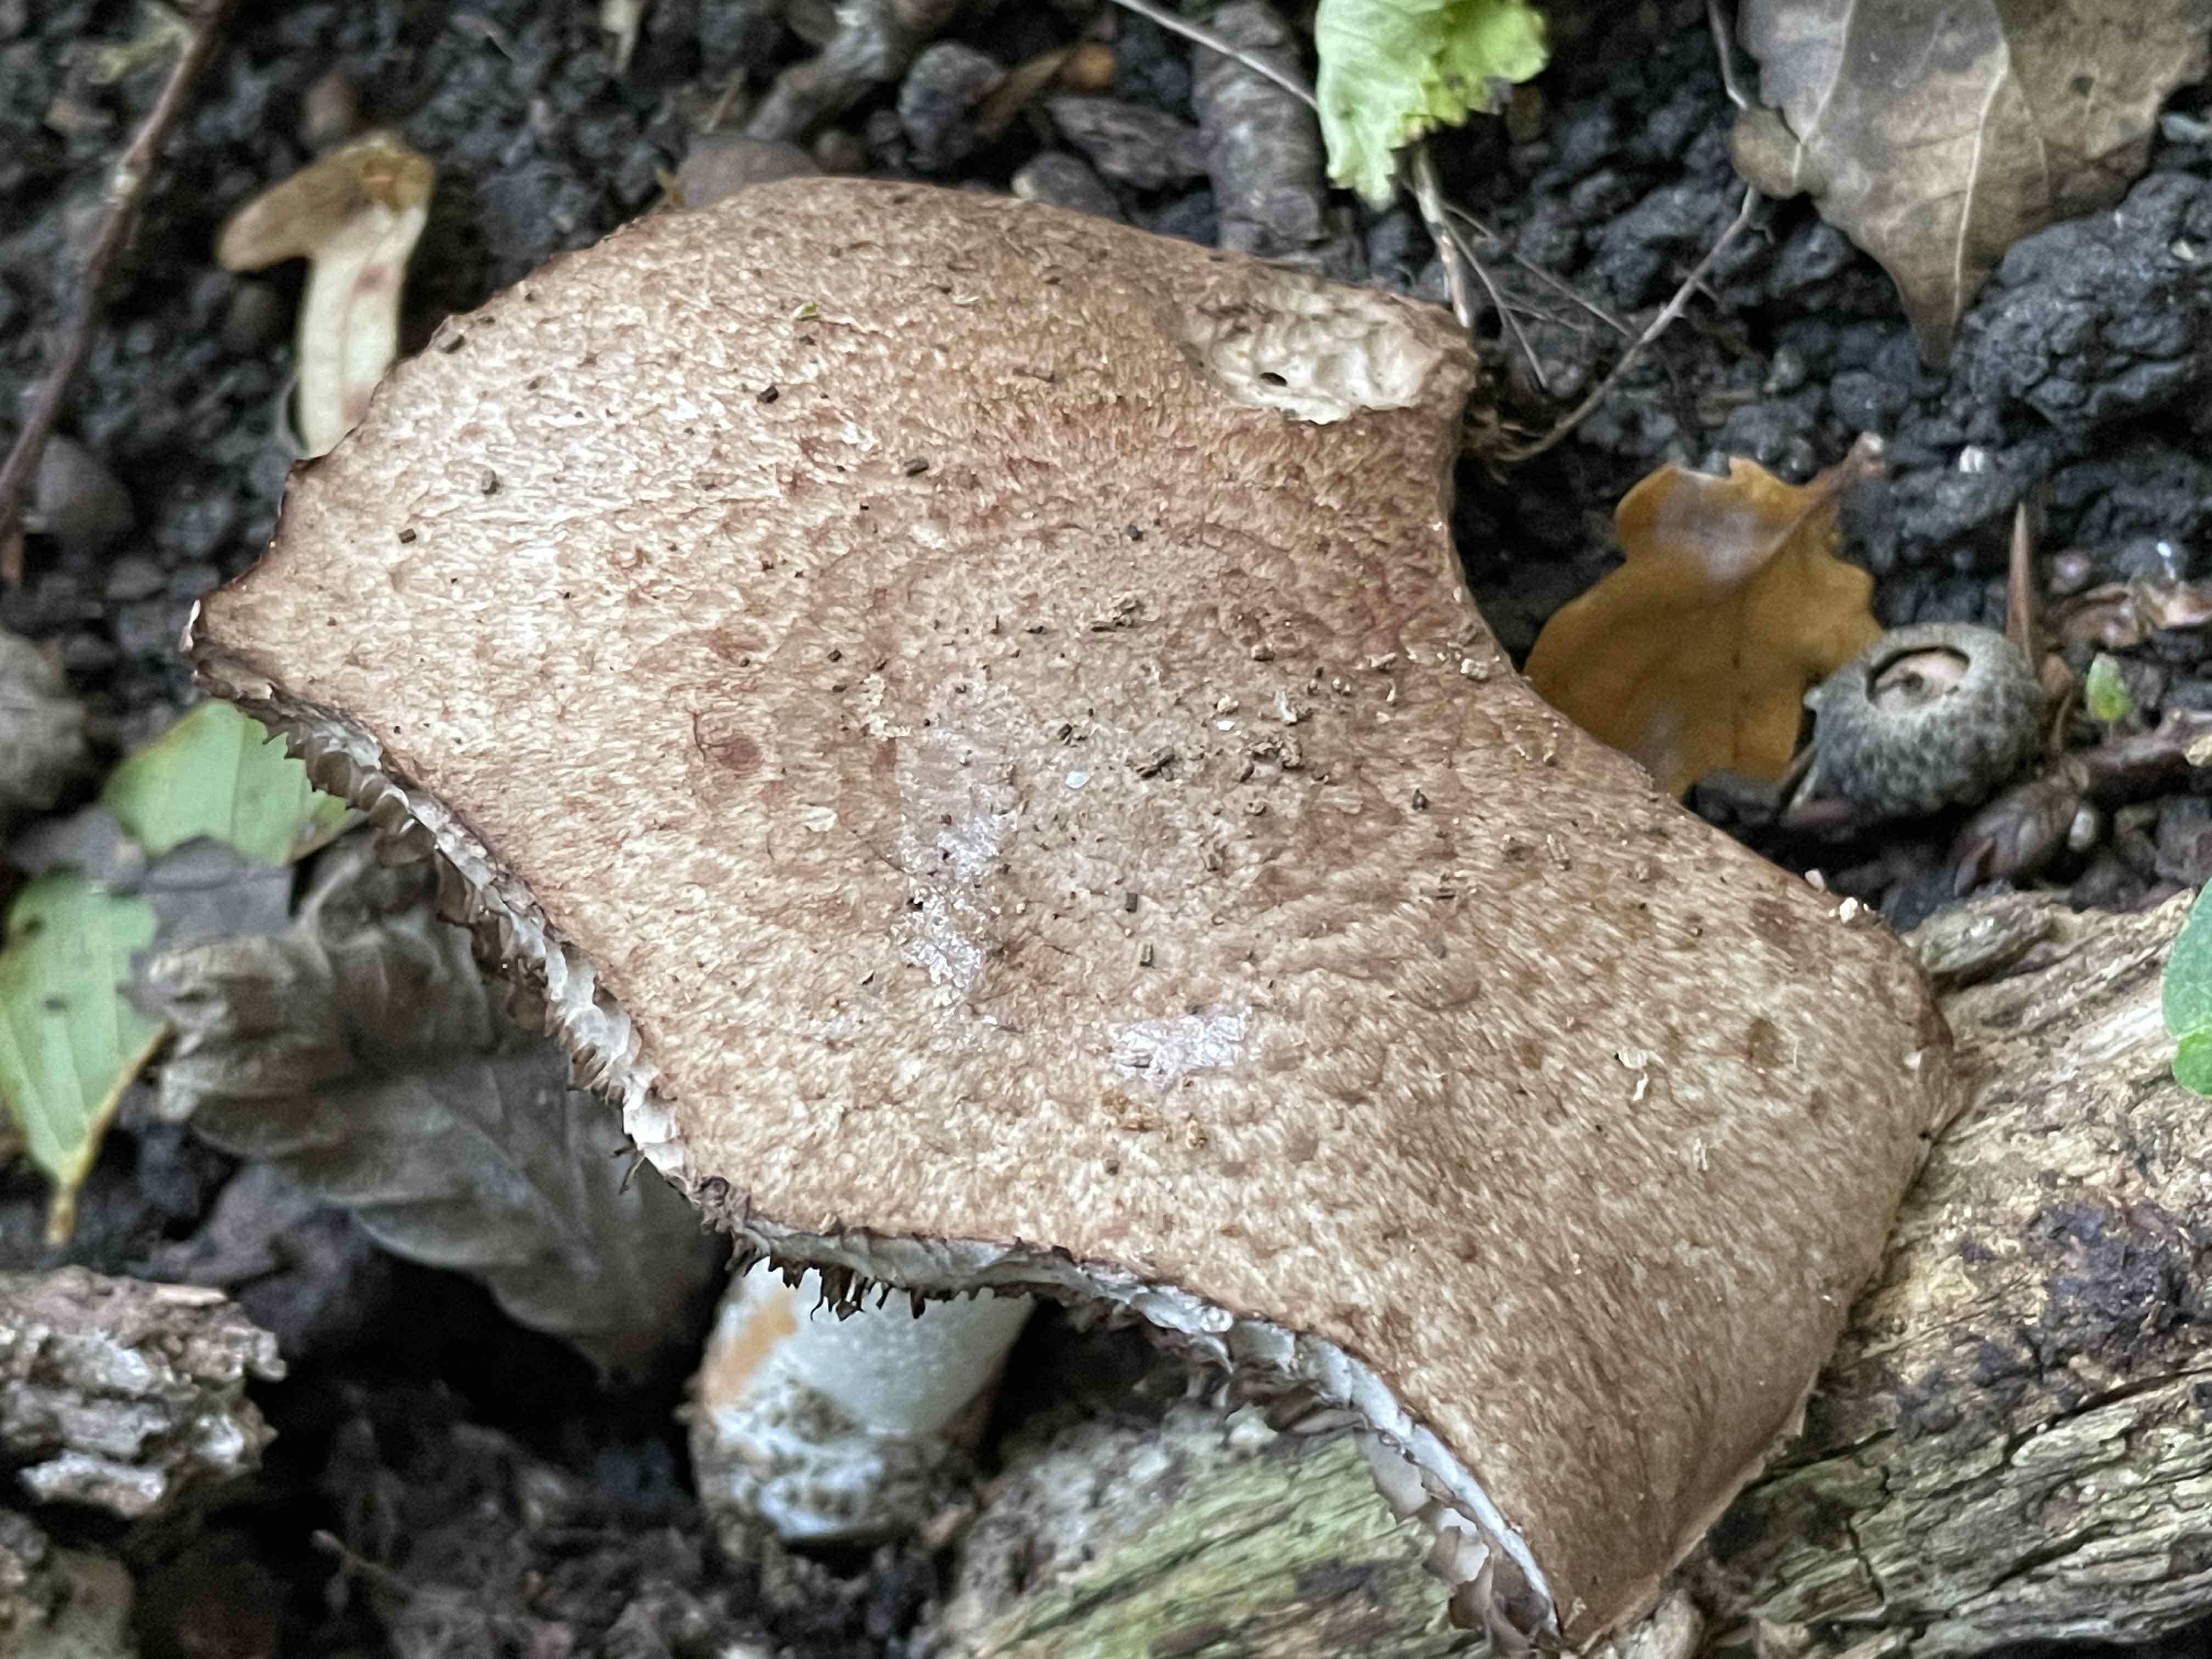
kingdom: Fungi
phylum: Basidiomycota
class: Agaricomycetes
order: Agaricales
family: Agaricaceae
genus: Agaricus
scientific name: Agaricus
